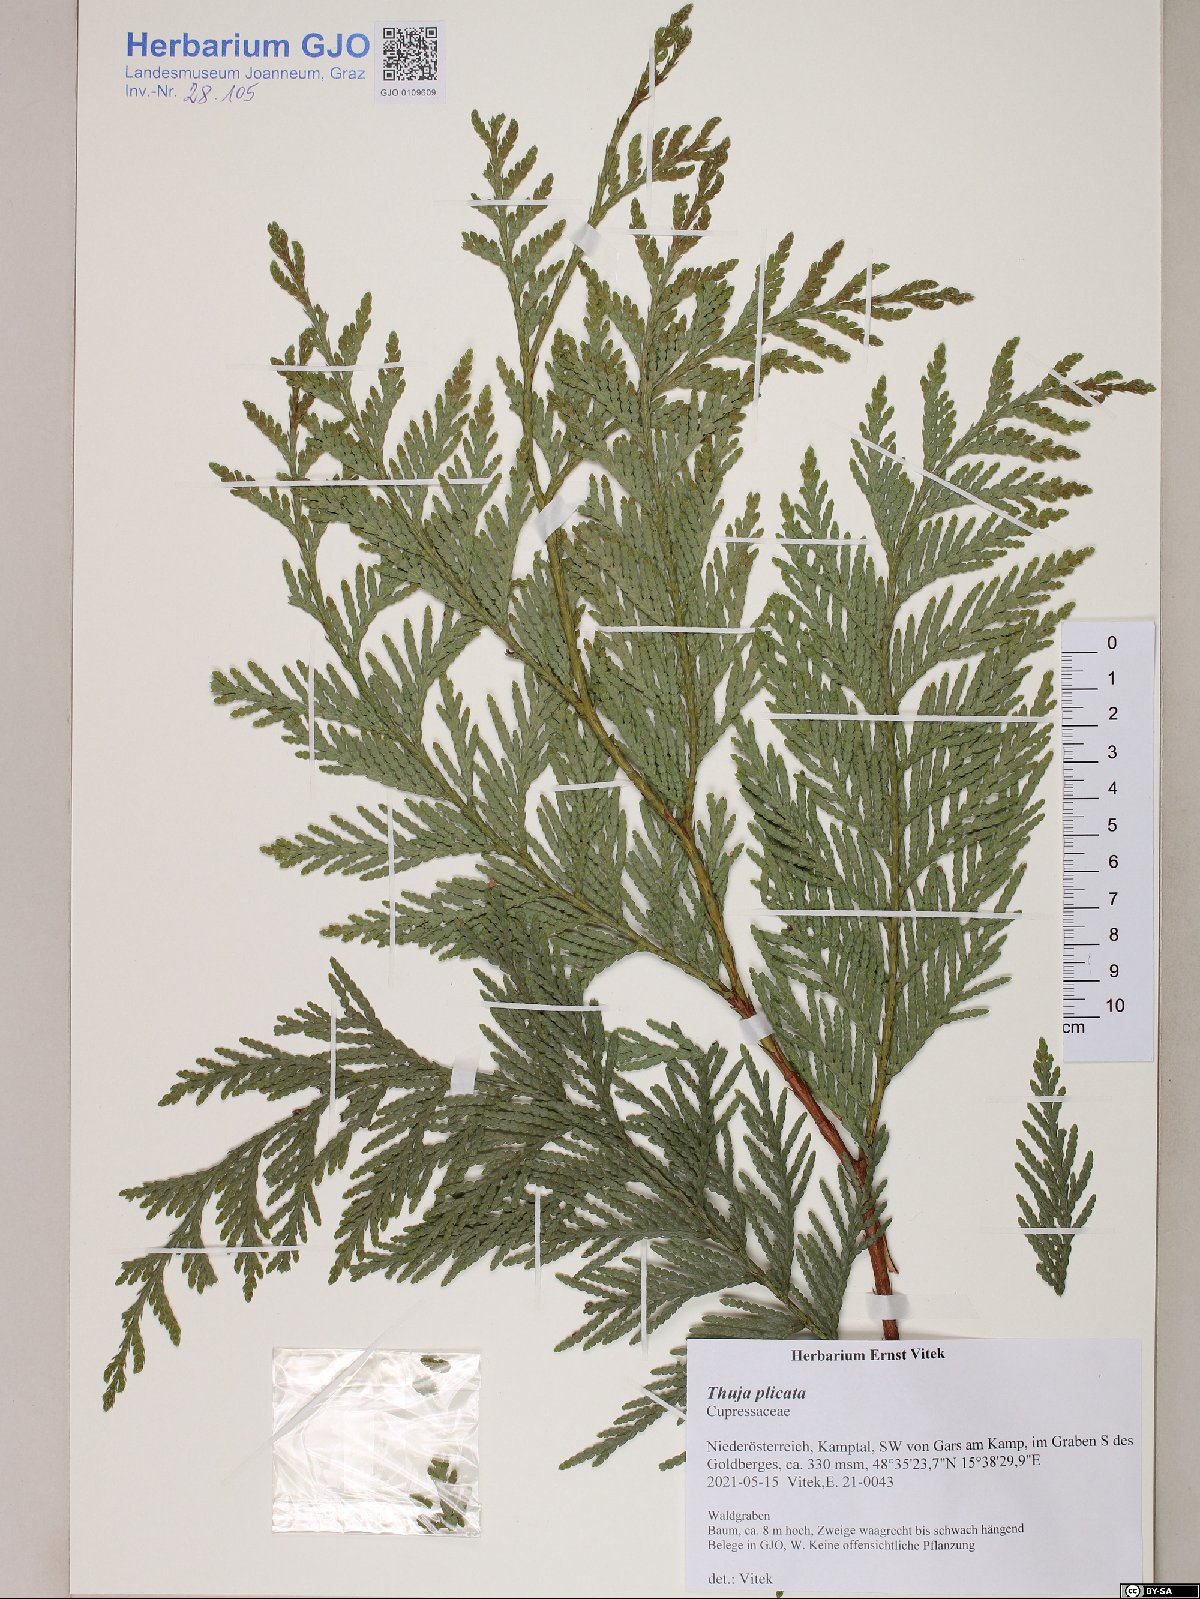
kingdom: Plantae
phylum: Tracheophyta
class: Pinopsida
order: Pinales
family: Cupressaceae
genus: Thuja
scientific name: Thuja plicata
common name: Western red-cedar
